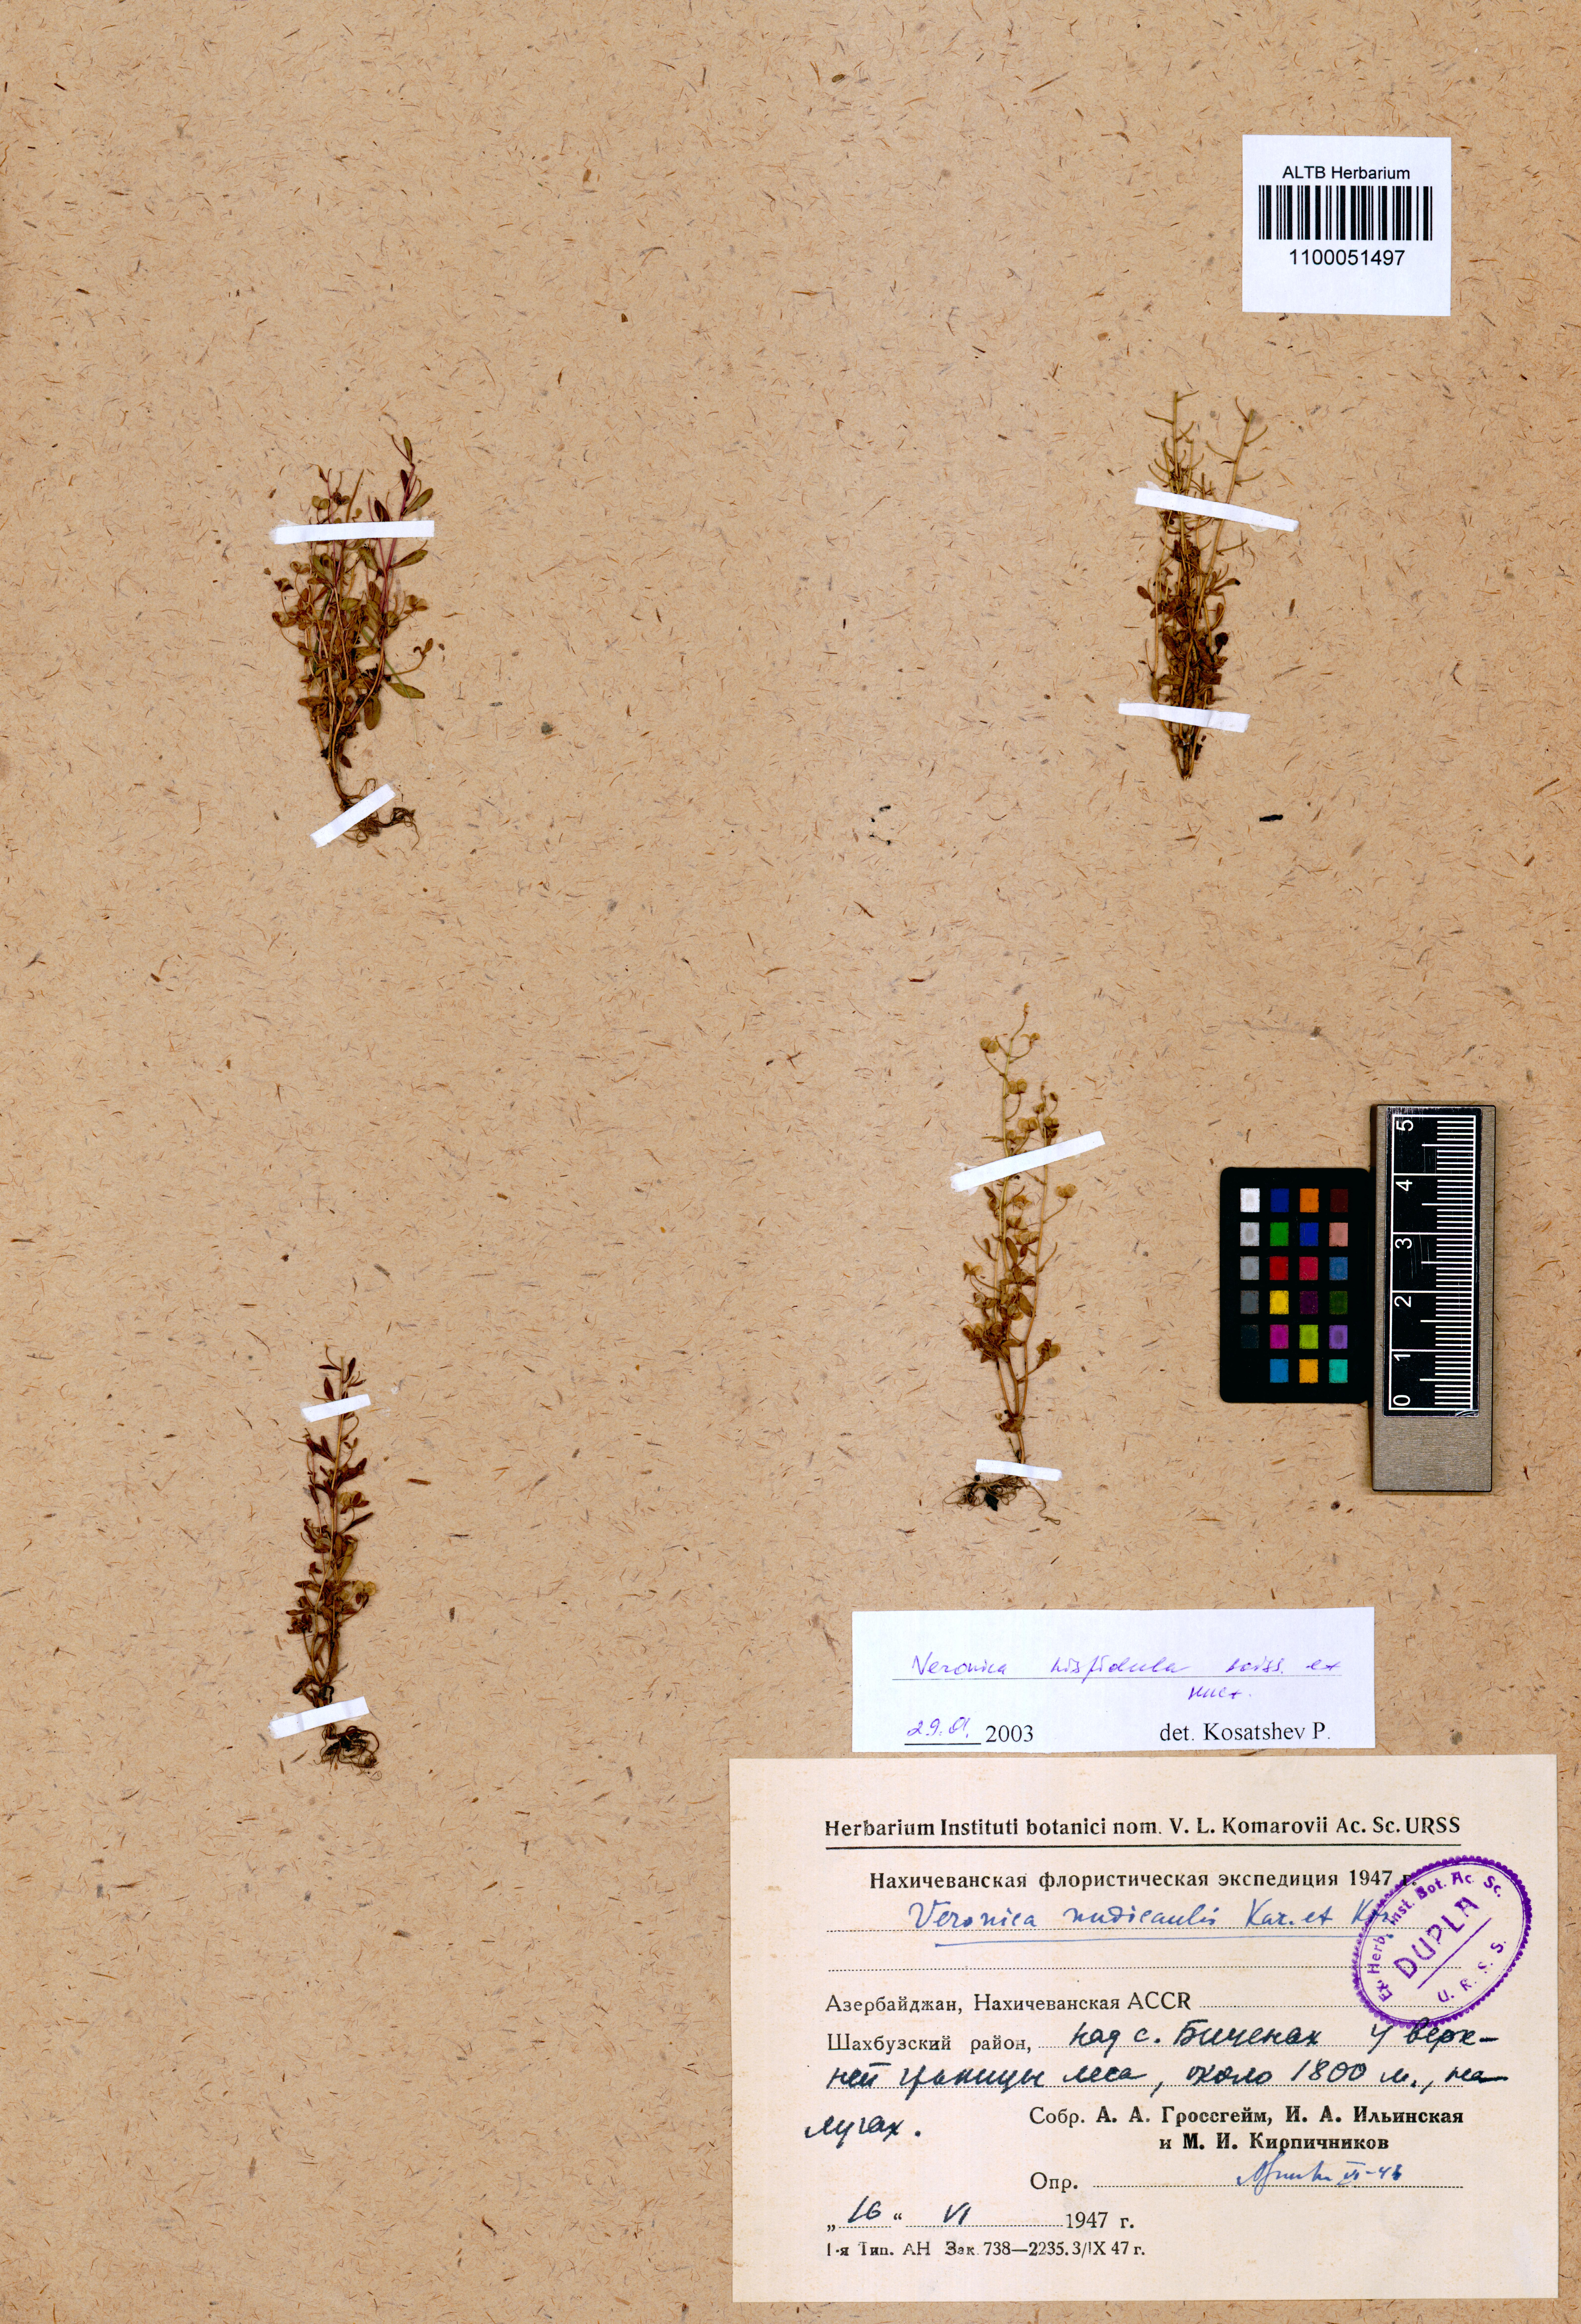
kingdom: Plantae
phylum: Tracheophyta
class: Magnoliopsida
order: Lamiales
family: Plantaginaceae
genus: Veronica
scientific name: Veronica hispidula
